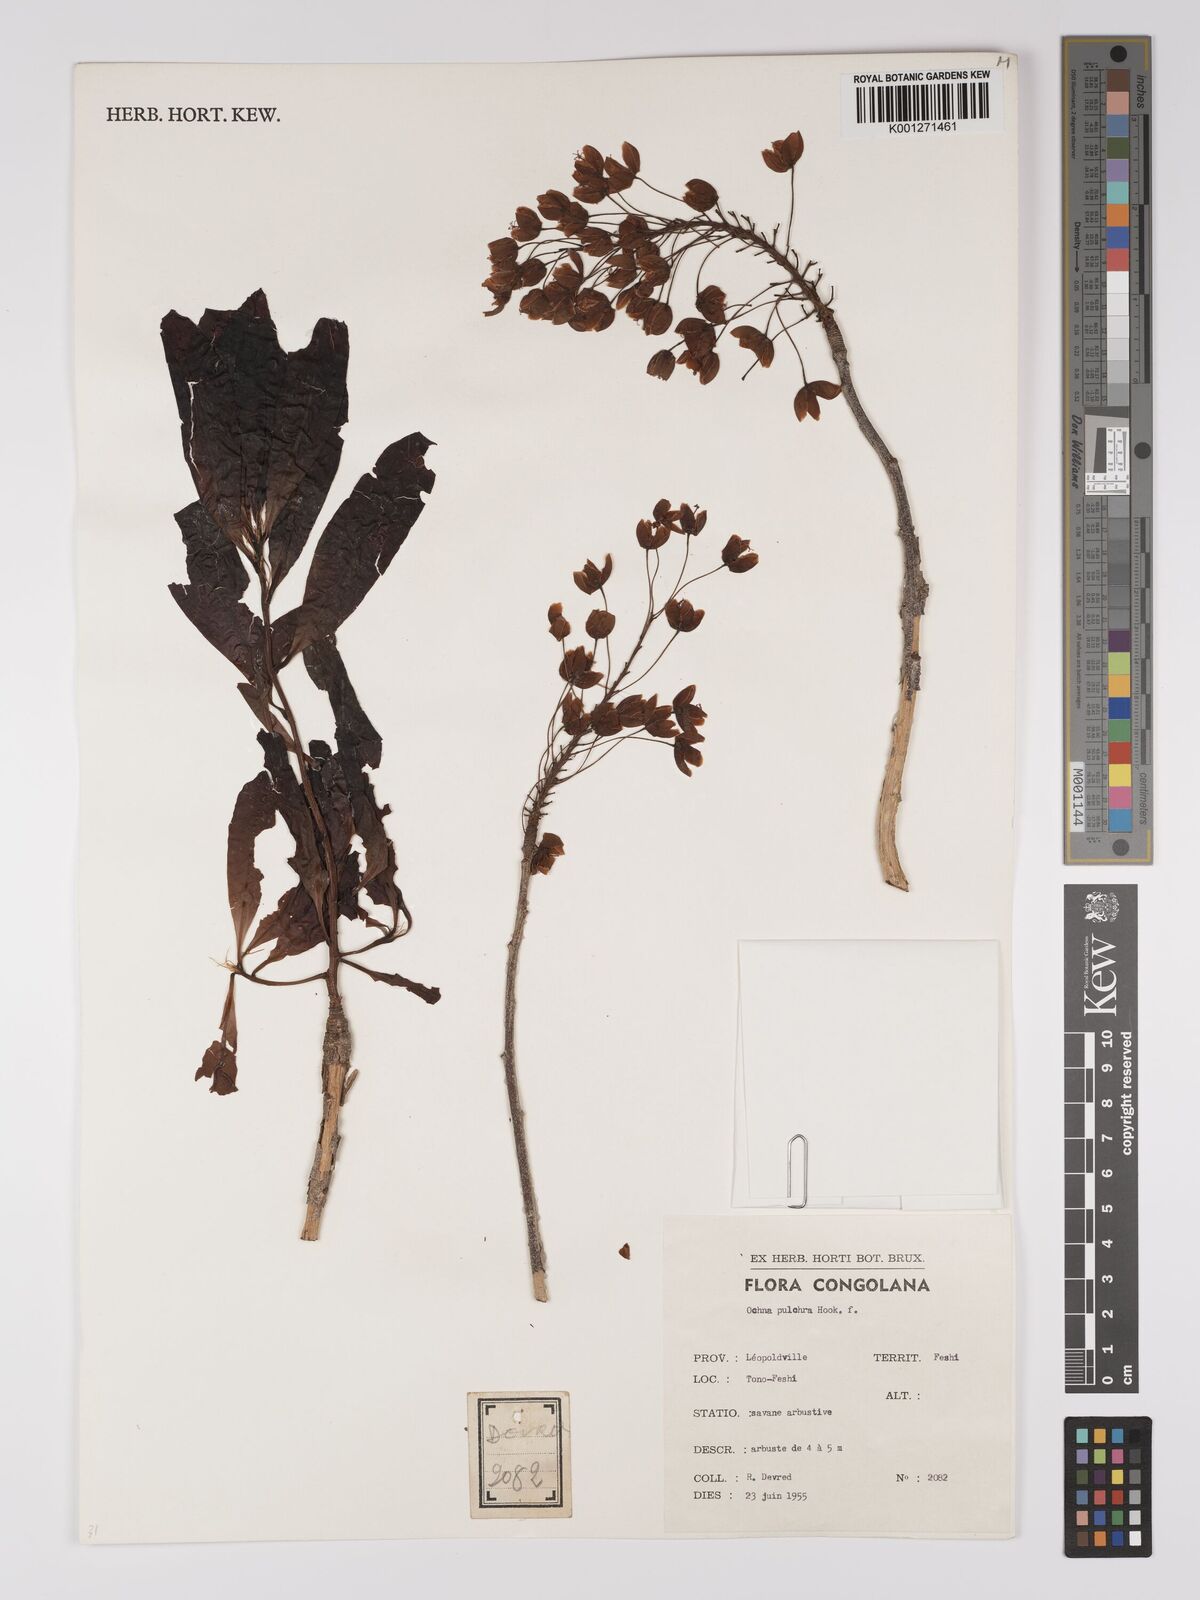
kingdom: Plantae
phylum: Tracheophyta
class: Magnoliopsida
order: Malpighiales
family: Ochnaceae
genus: Ochna
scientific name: Ochna pulchra
